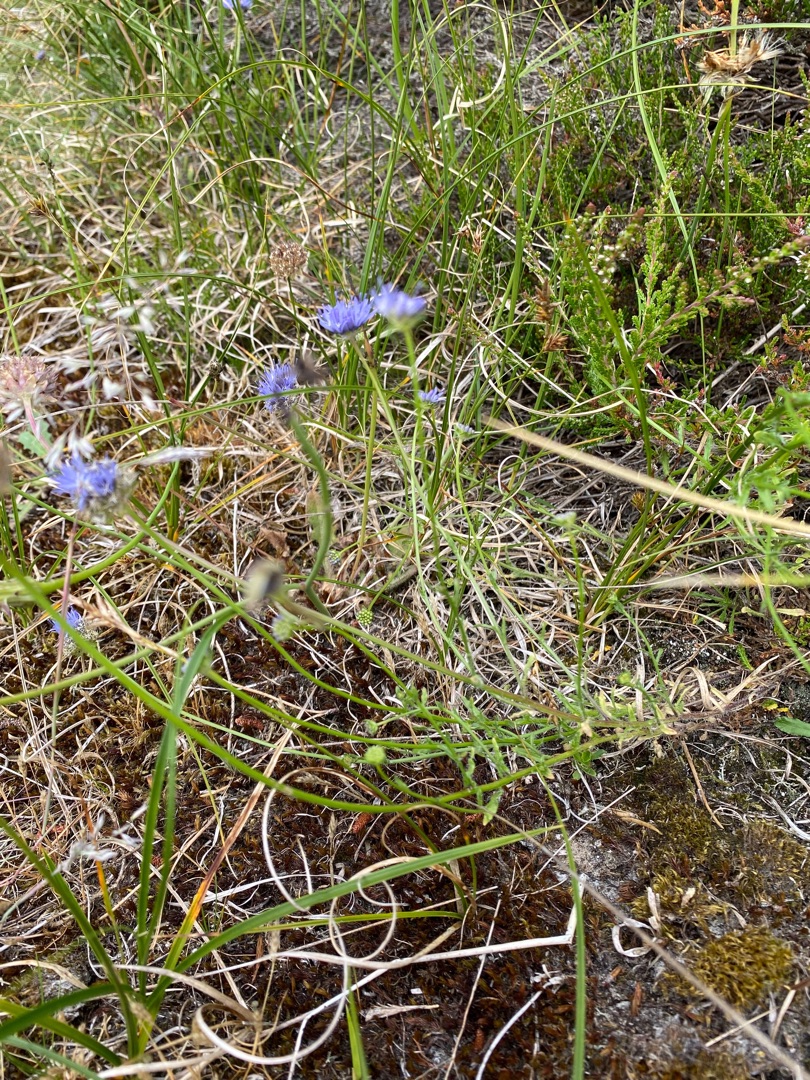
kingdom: Plantae
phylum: Tracheophyta
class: Magnoliopsida
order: Asterales
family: Campanulaceae
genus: Jasione
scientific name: Jasione montana
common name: Blåmunke
